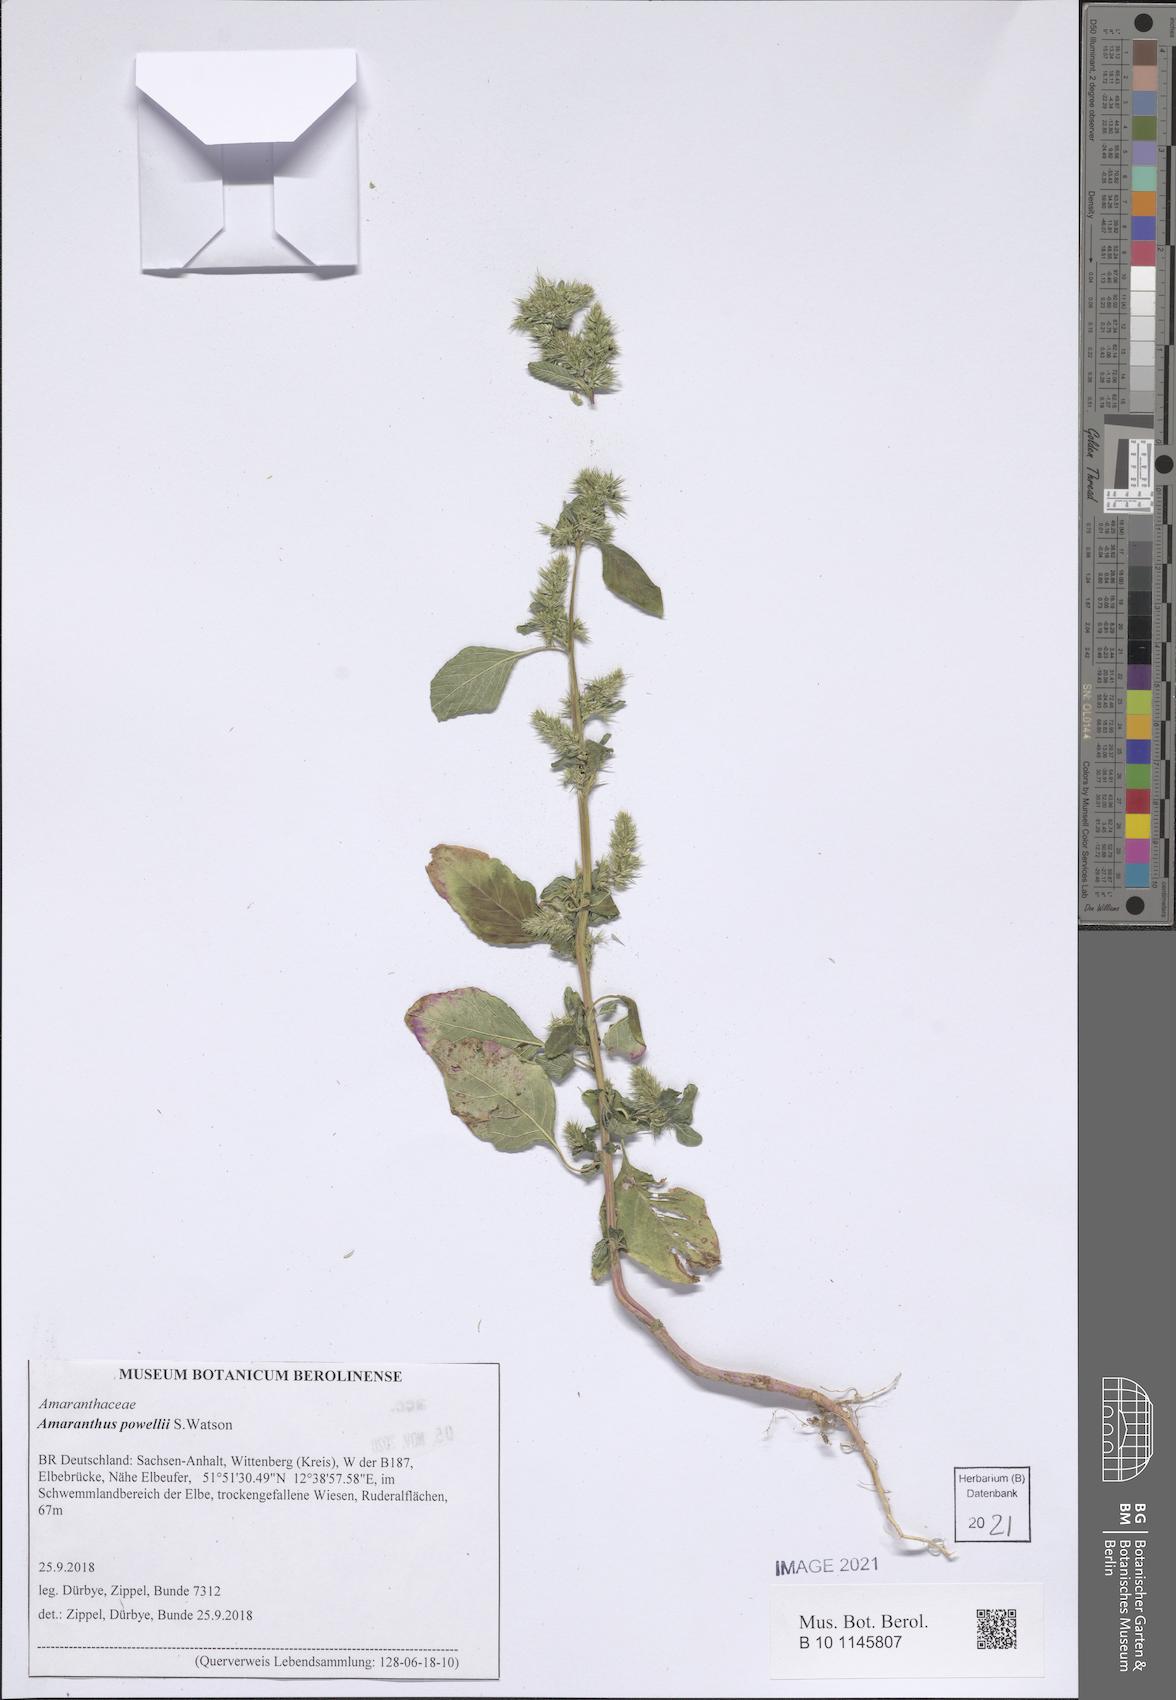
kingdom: Plantae
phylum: Tracheophyta
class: Magnoliopsida
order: Caryophyllales
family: Amaranthaceae
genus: Amaranthus
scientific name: Amaranthus powellii
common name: Powell's amaranth
